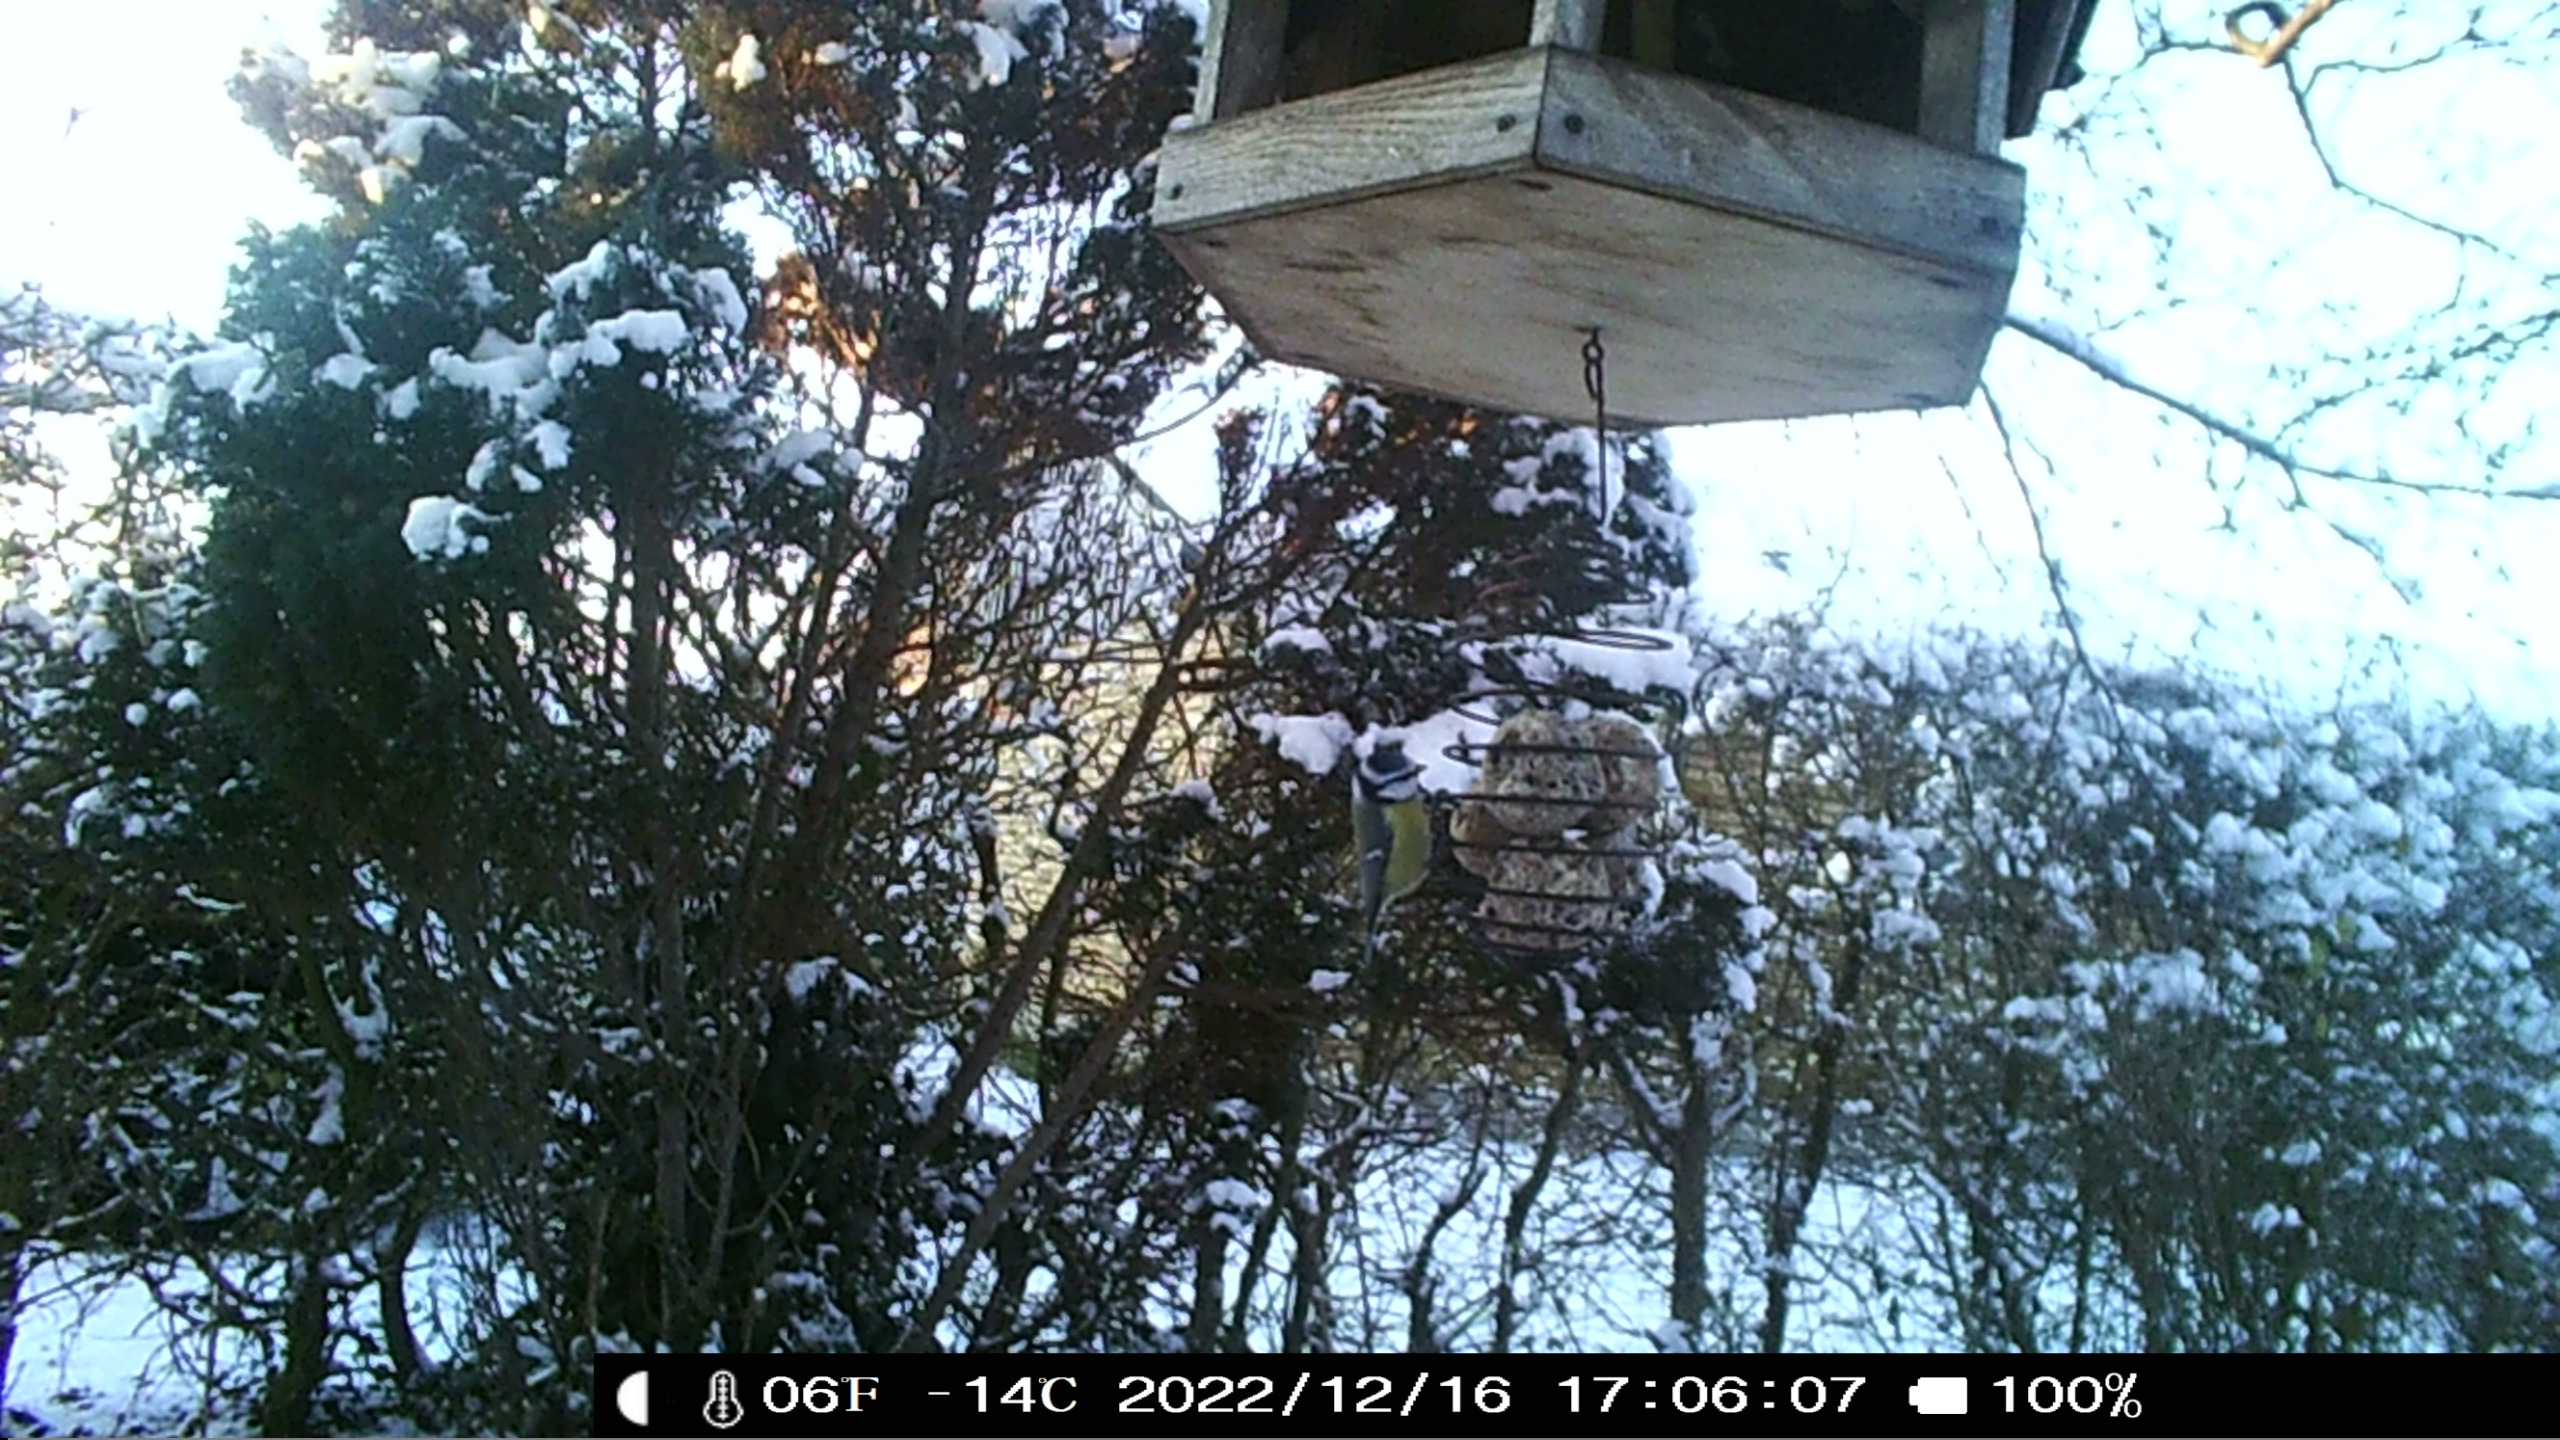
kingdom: Animalia
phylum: Chordata
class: Aves
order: Passeriformes
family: Paridae
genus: Cyanistes
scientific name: Cyanistes caeruleus
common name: Blåmejse
